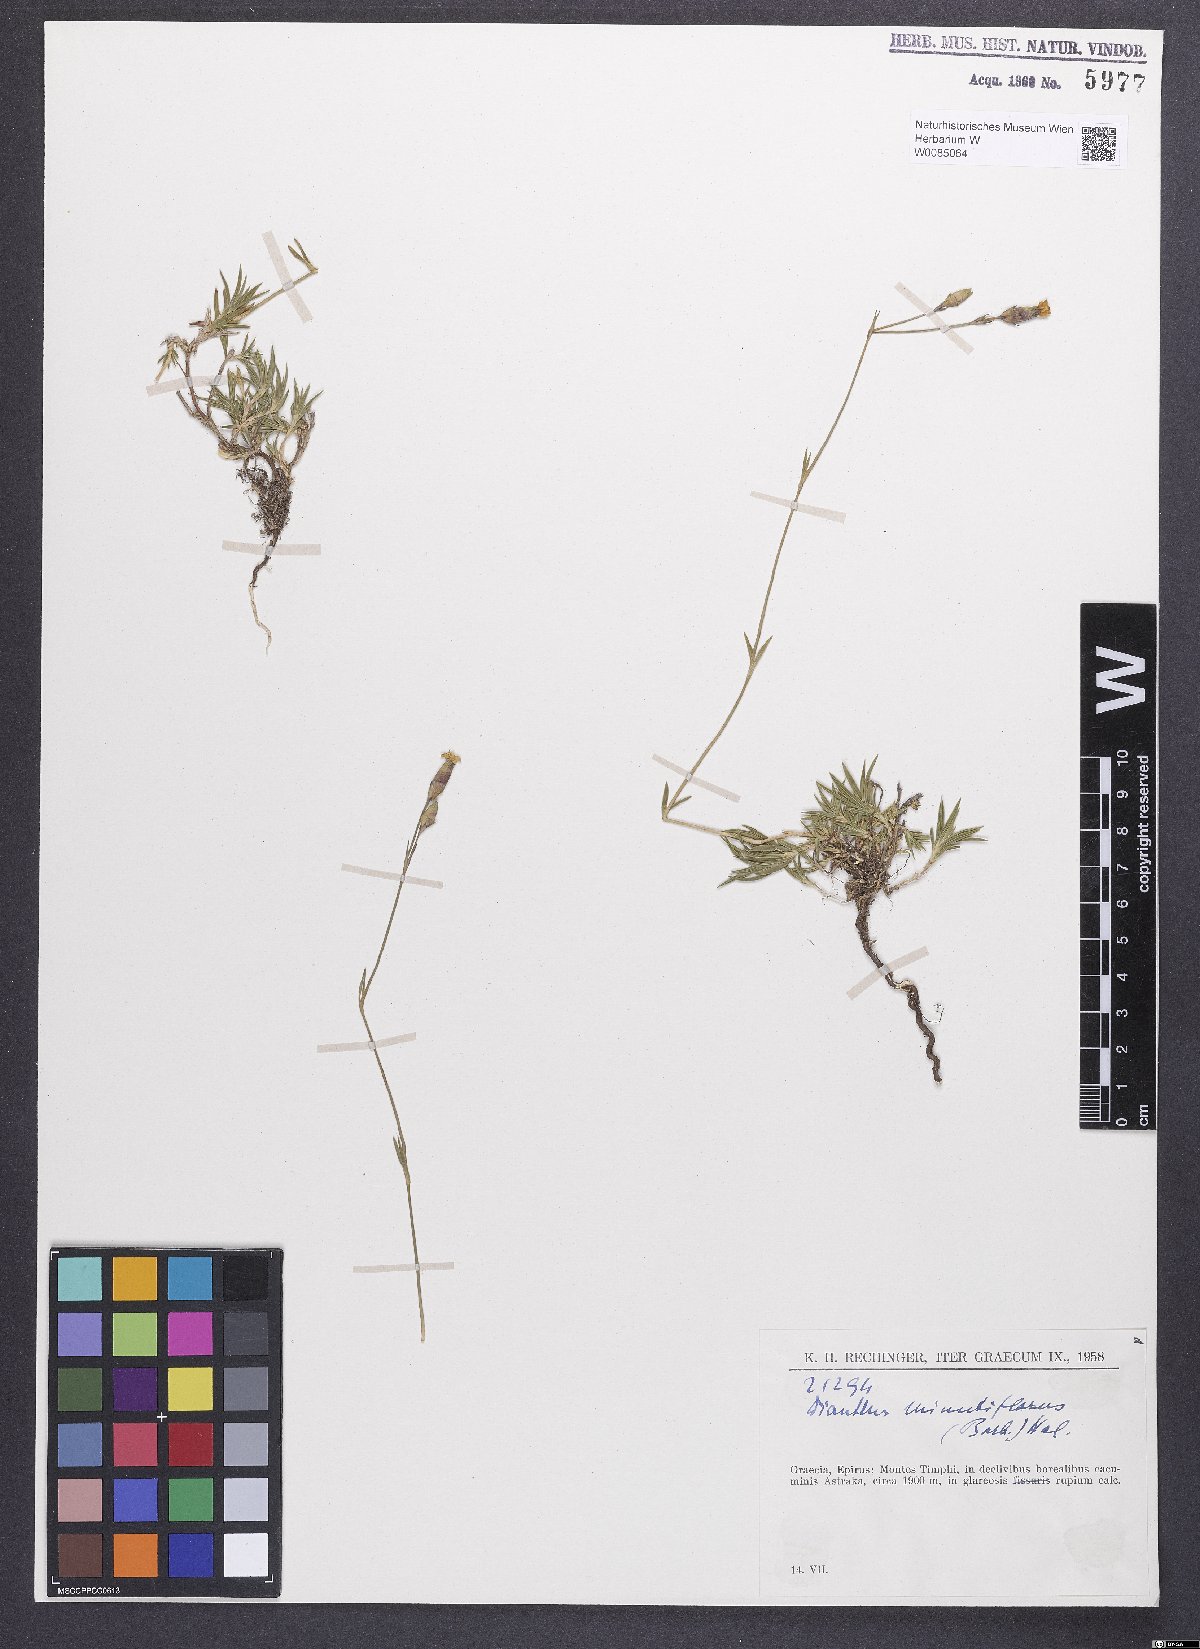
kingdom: Plantae
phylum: Tracheophyta
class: Magnoliopsida
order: Caryophyllales
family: Caryophyllaceae
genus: Dianthus
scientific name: Dianthus integer
